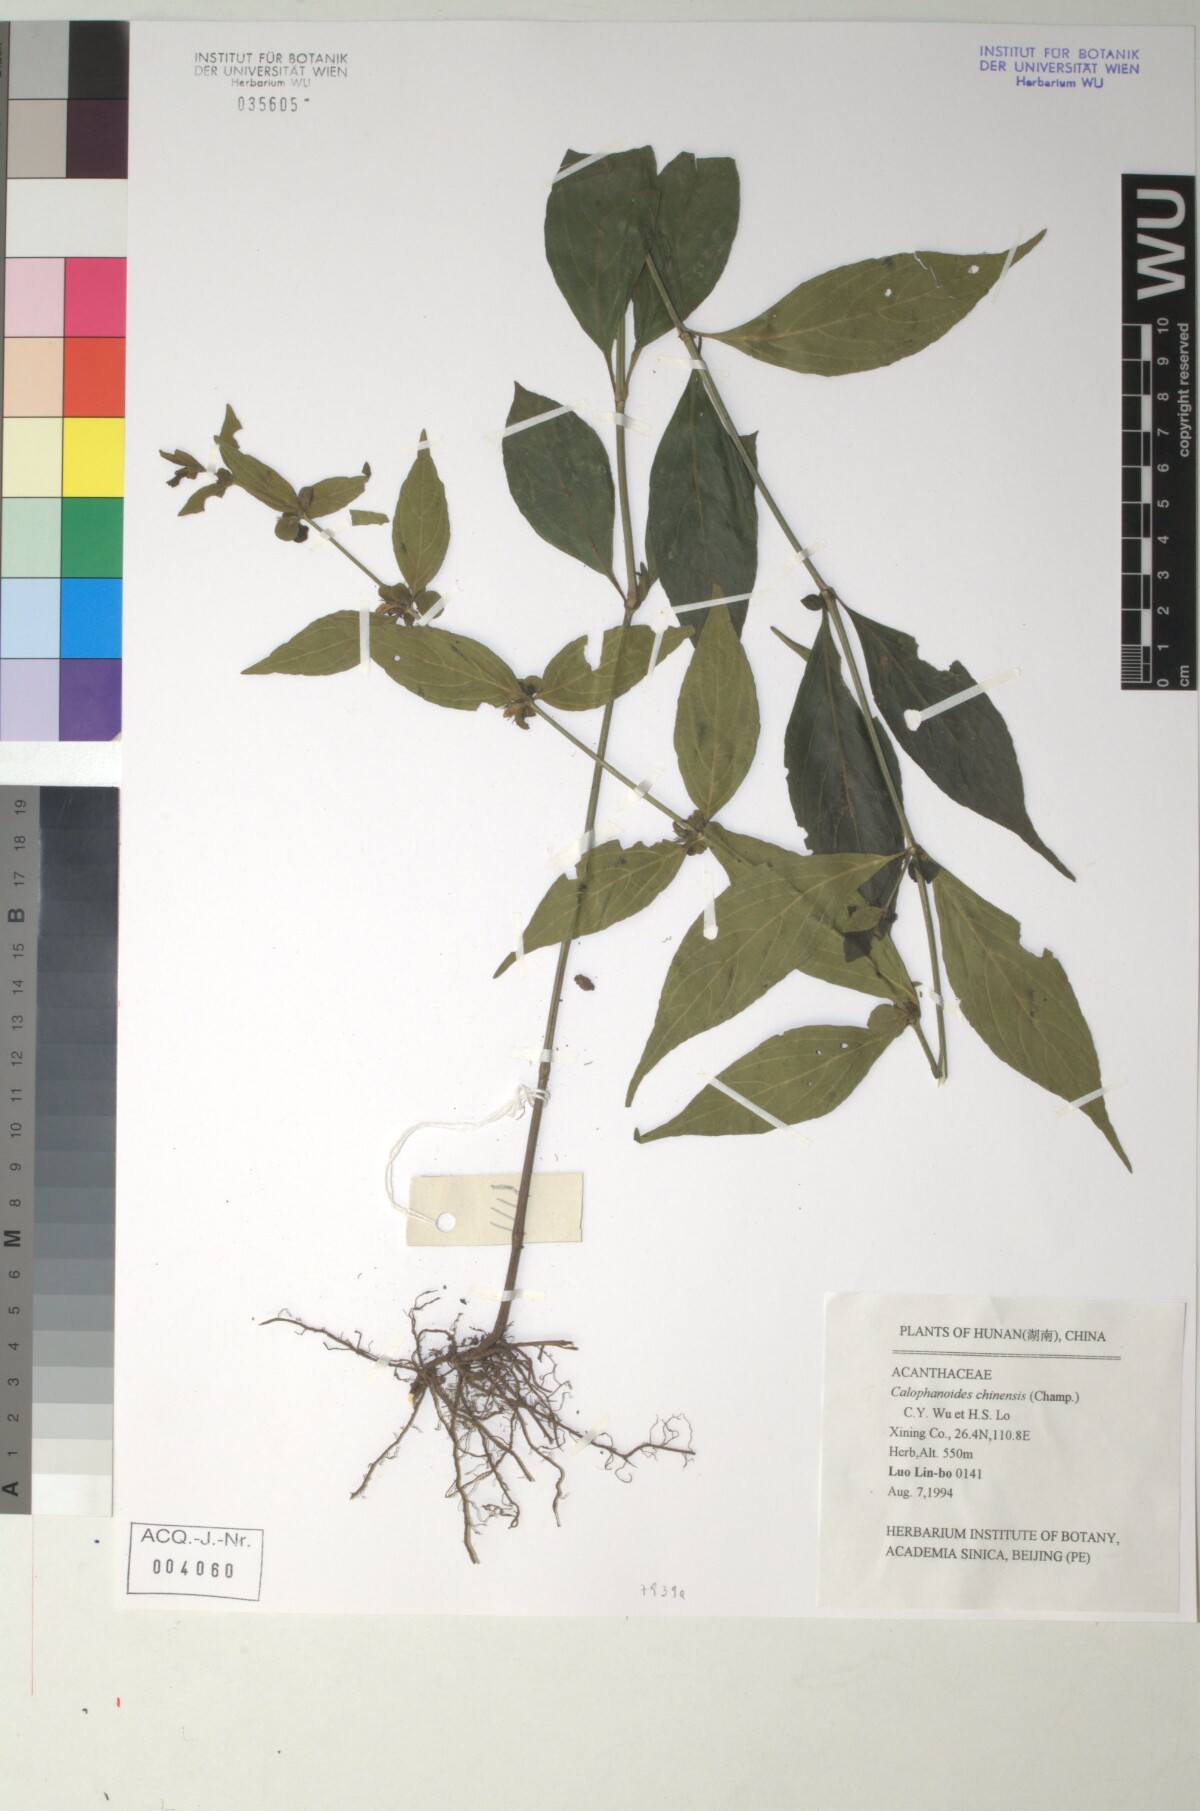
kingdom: Plantae
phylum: Tracheophyta
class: Magnoliopsida
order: Lamiales
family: Acanthaceae
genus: Justicia
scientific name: Justicia championii
